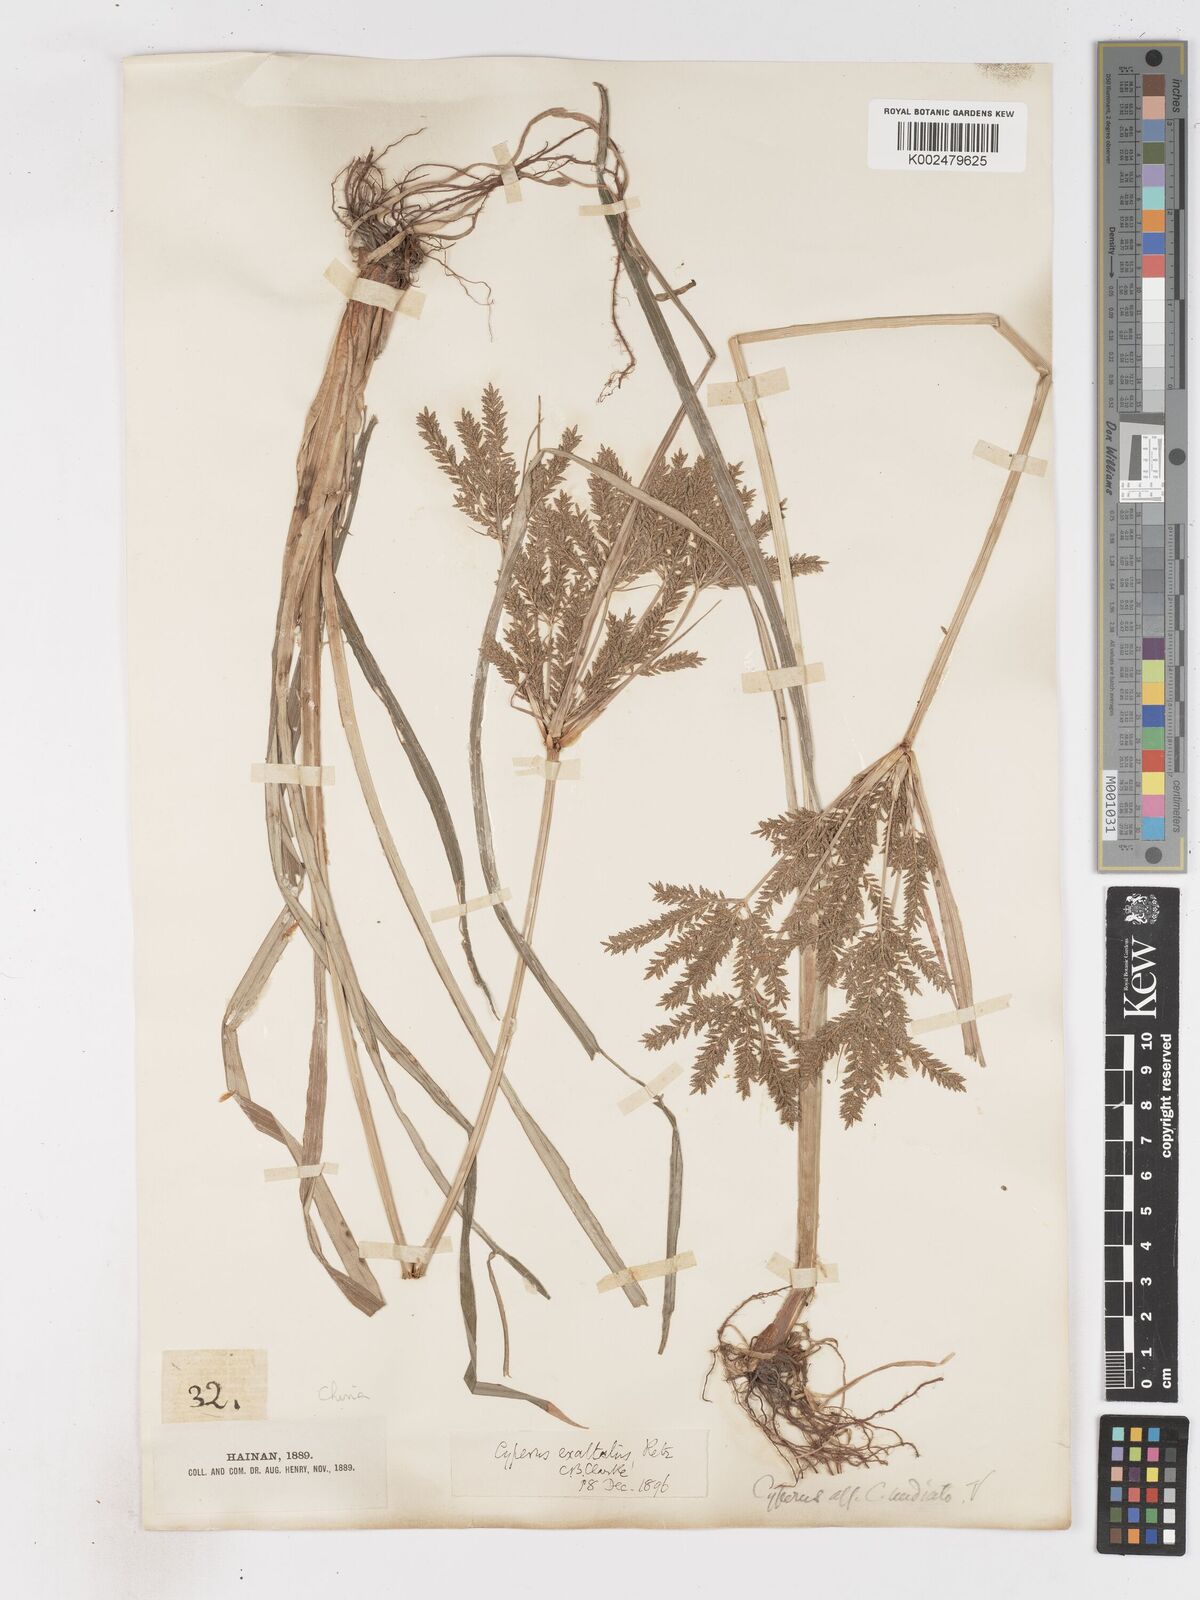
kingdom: Plantae
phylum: Tracheophyta
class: Liliopsida
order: Poales
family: Cyperaceae
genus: Cyperus
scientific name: Cyperus exaltatus
